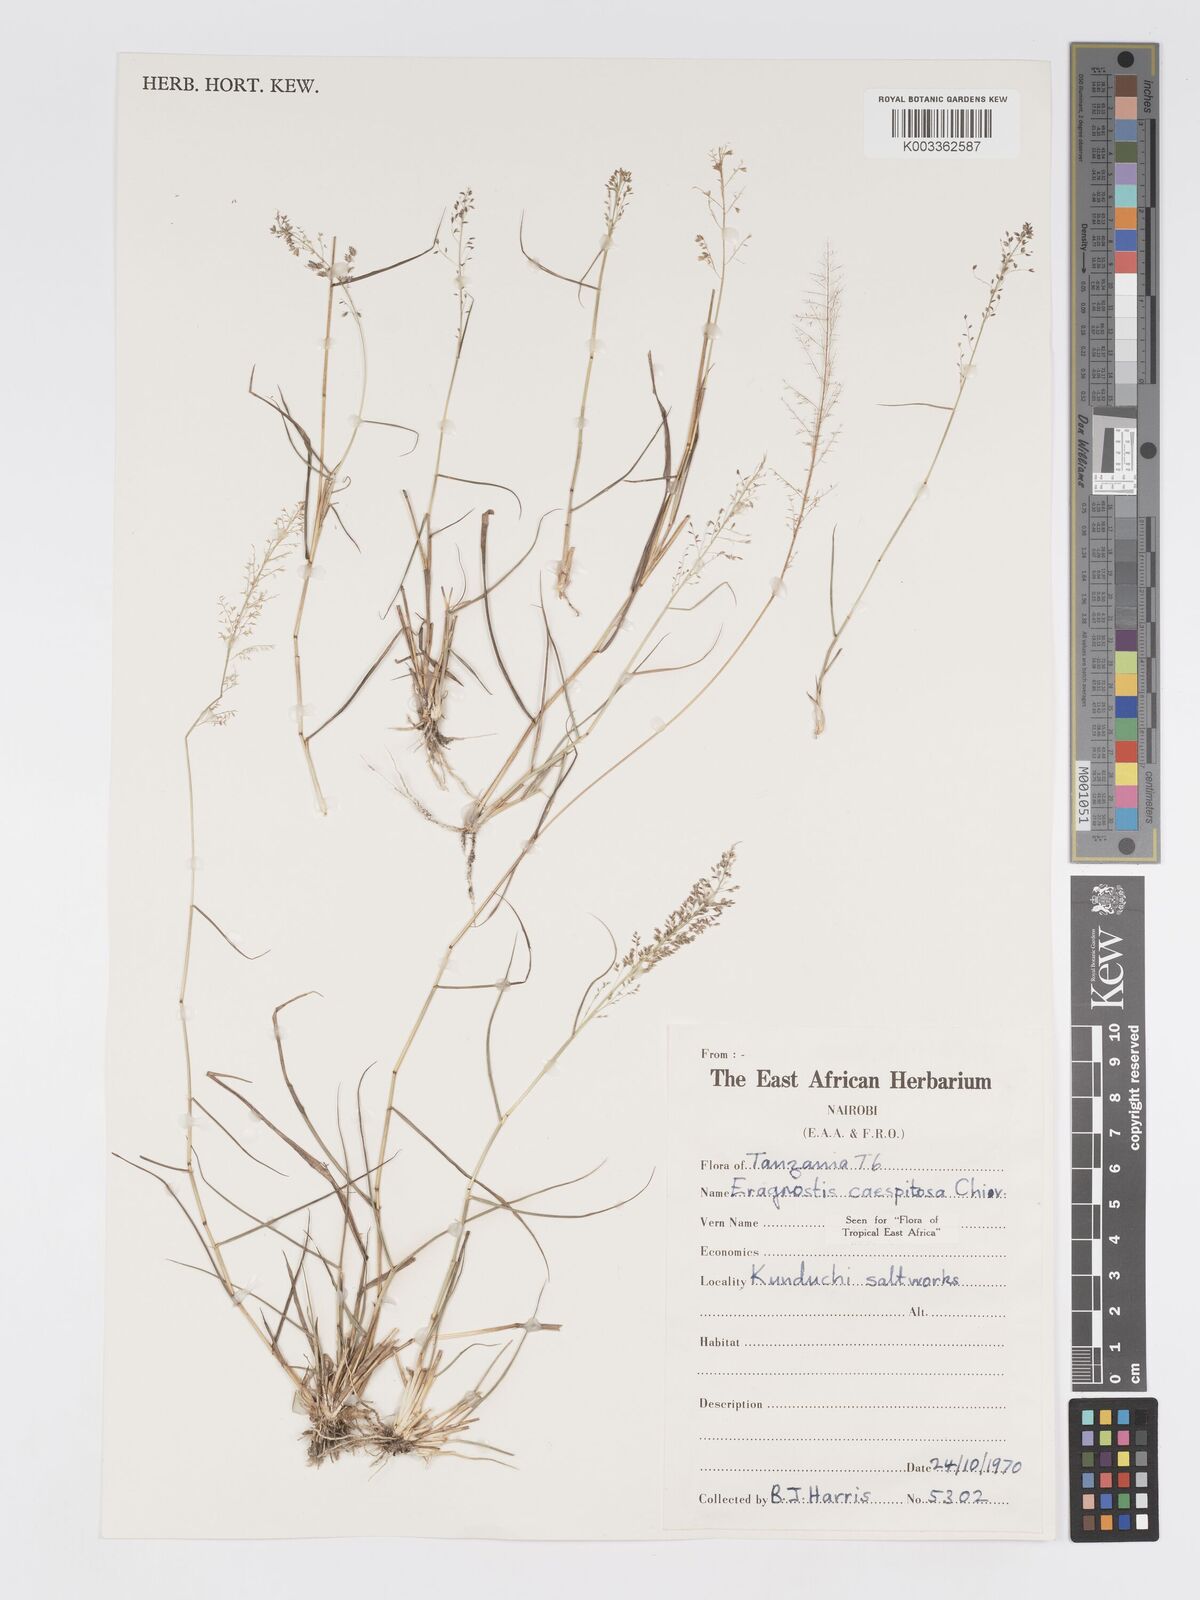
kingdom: Plantae
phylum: Tracheophyta
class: Liliopsida
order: Poales
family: Poaceae
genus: Eragrostis
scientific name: Eragrostis caespitosa
